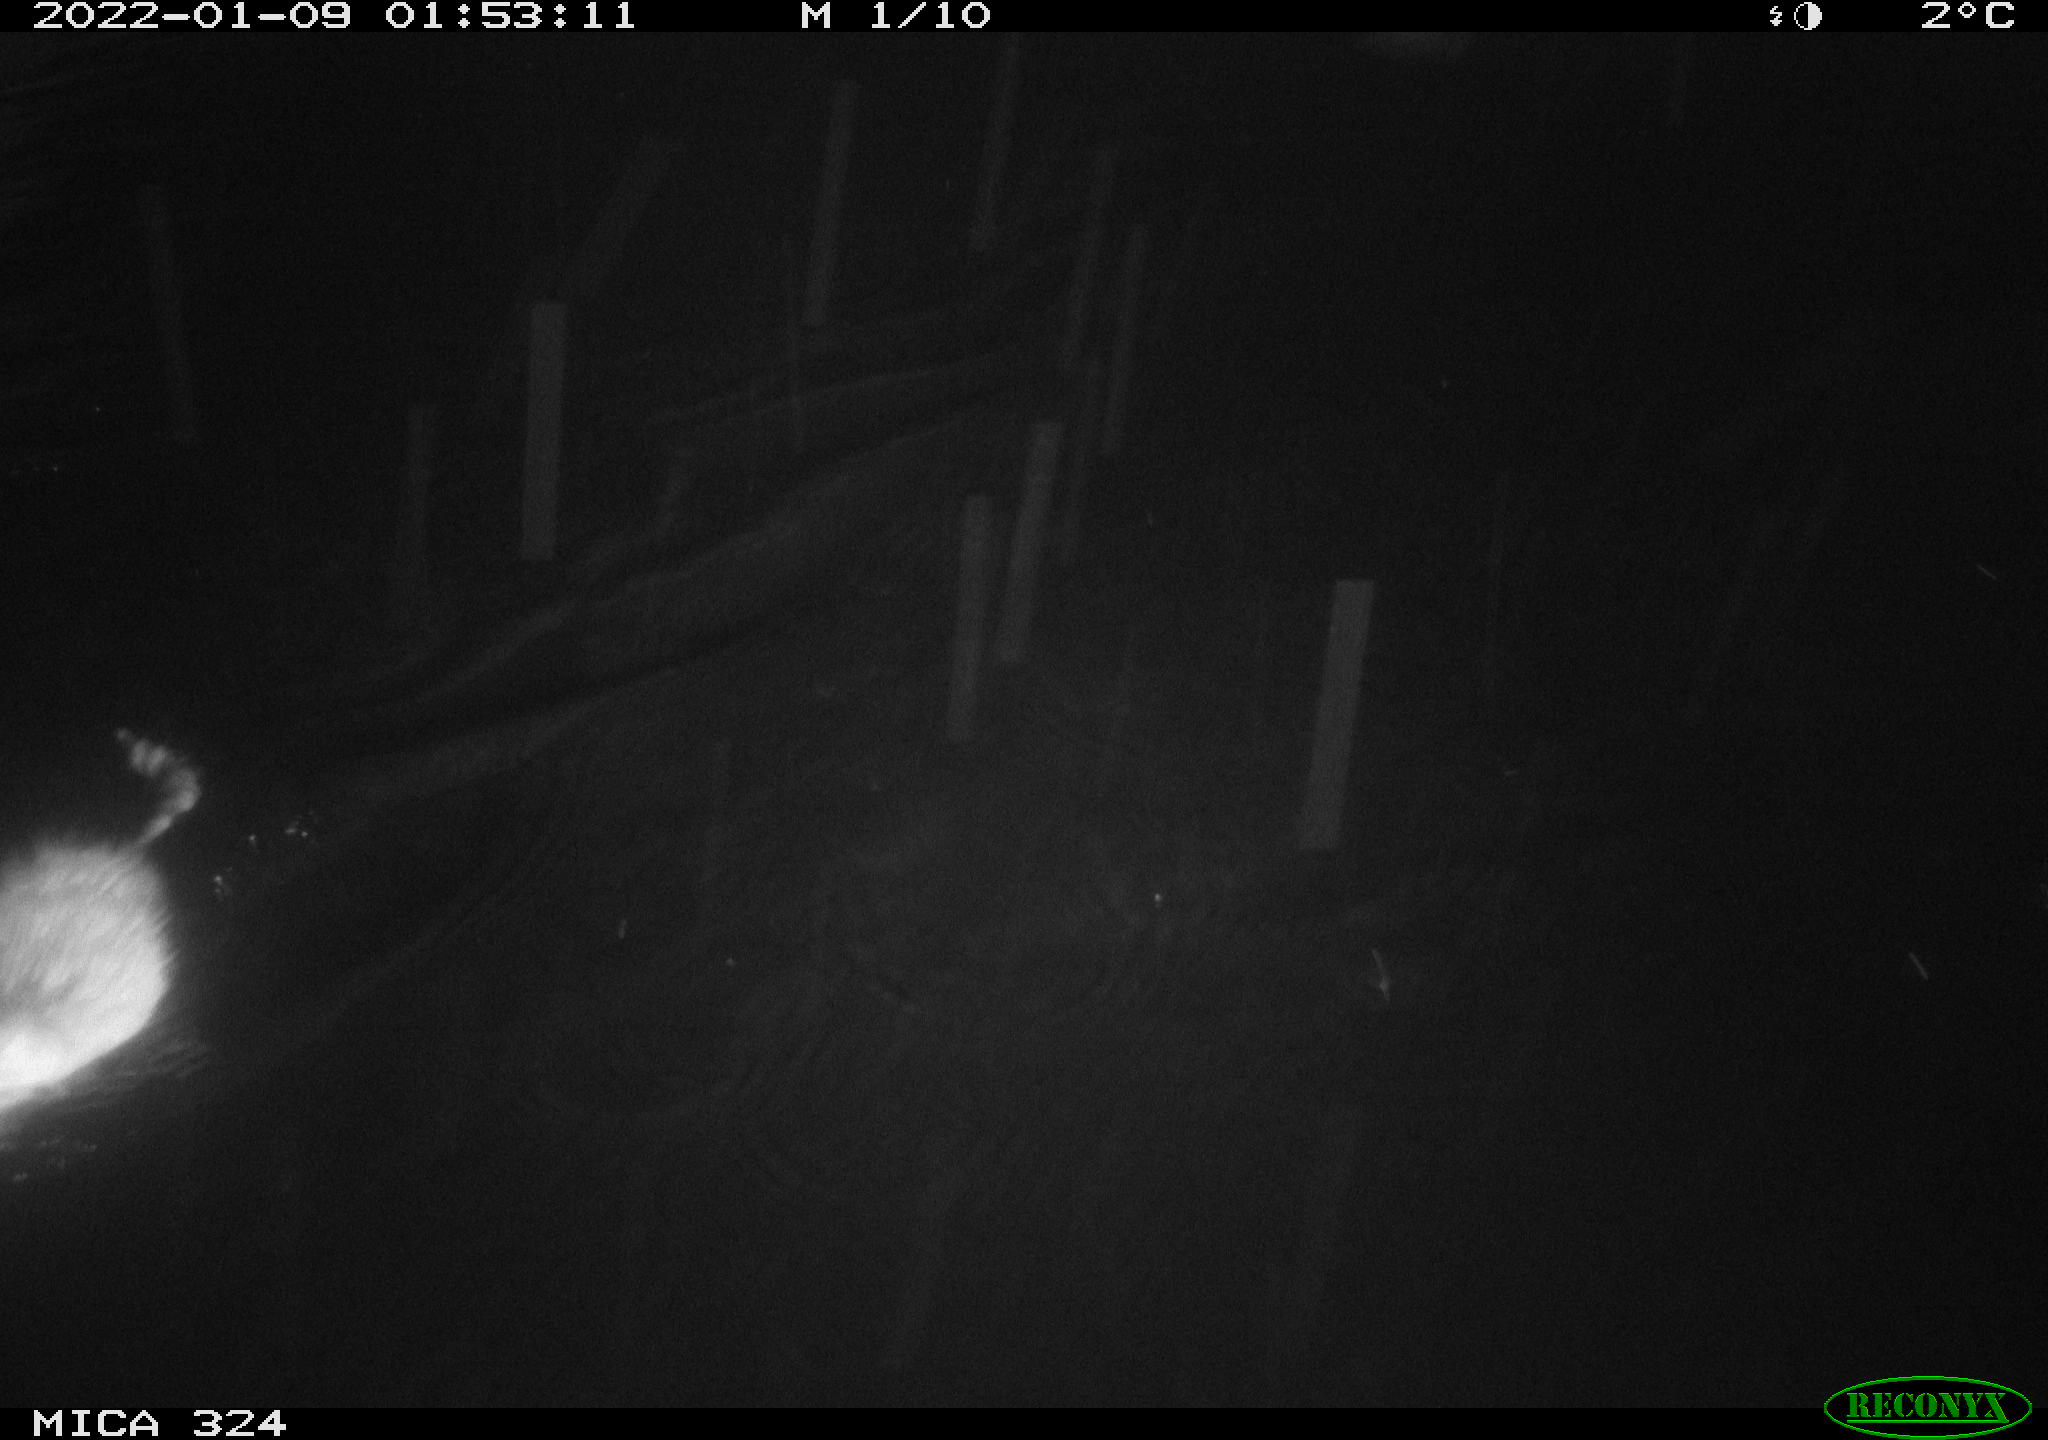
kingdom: Animalia
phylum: Chordata
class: Mammalia
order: Rodentia
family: Cricetidae
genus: Ondatra
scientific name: Ondatra zibethicus
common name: Muskrat
